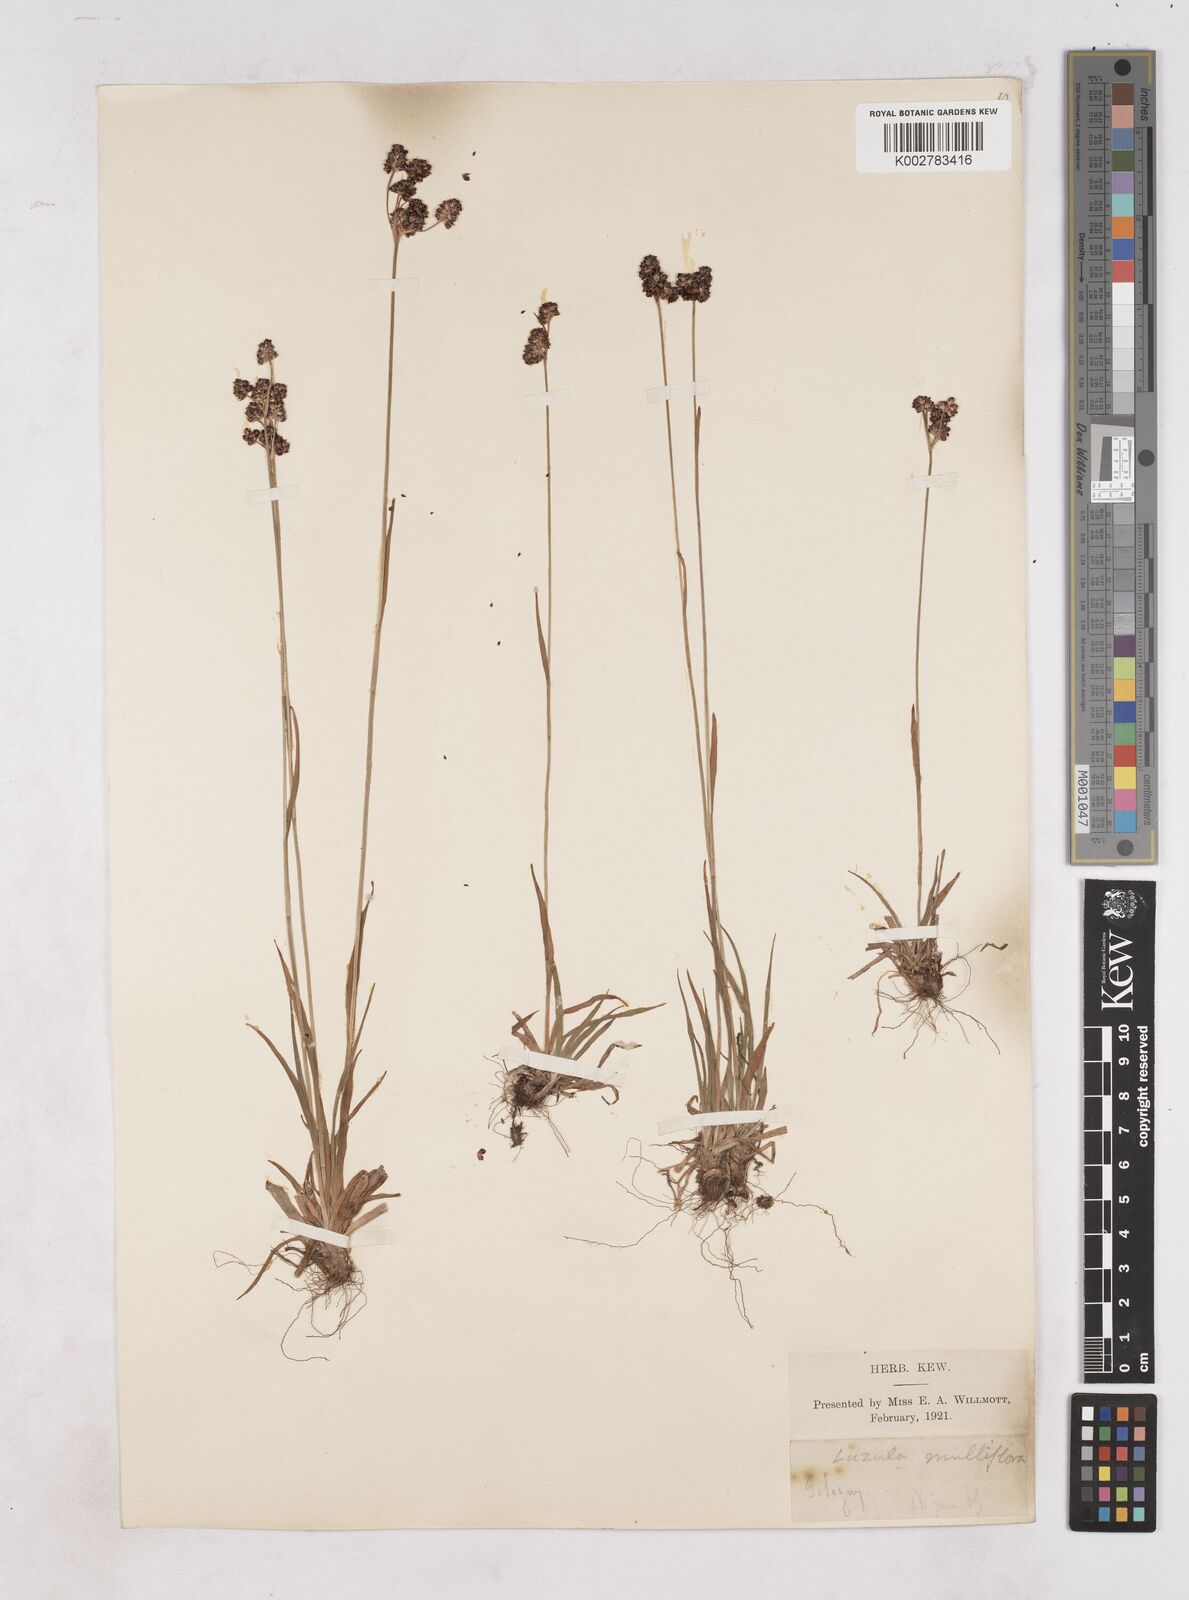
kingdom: Plantae
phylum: Tracheophyta
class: Liliopsida
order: Poales
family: Juncaceae
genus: Luzula
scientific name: Luzula multiflora
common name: Heath wood-rush
